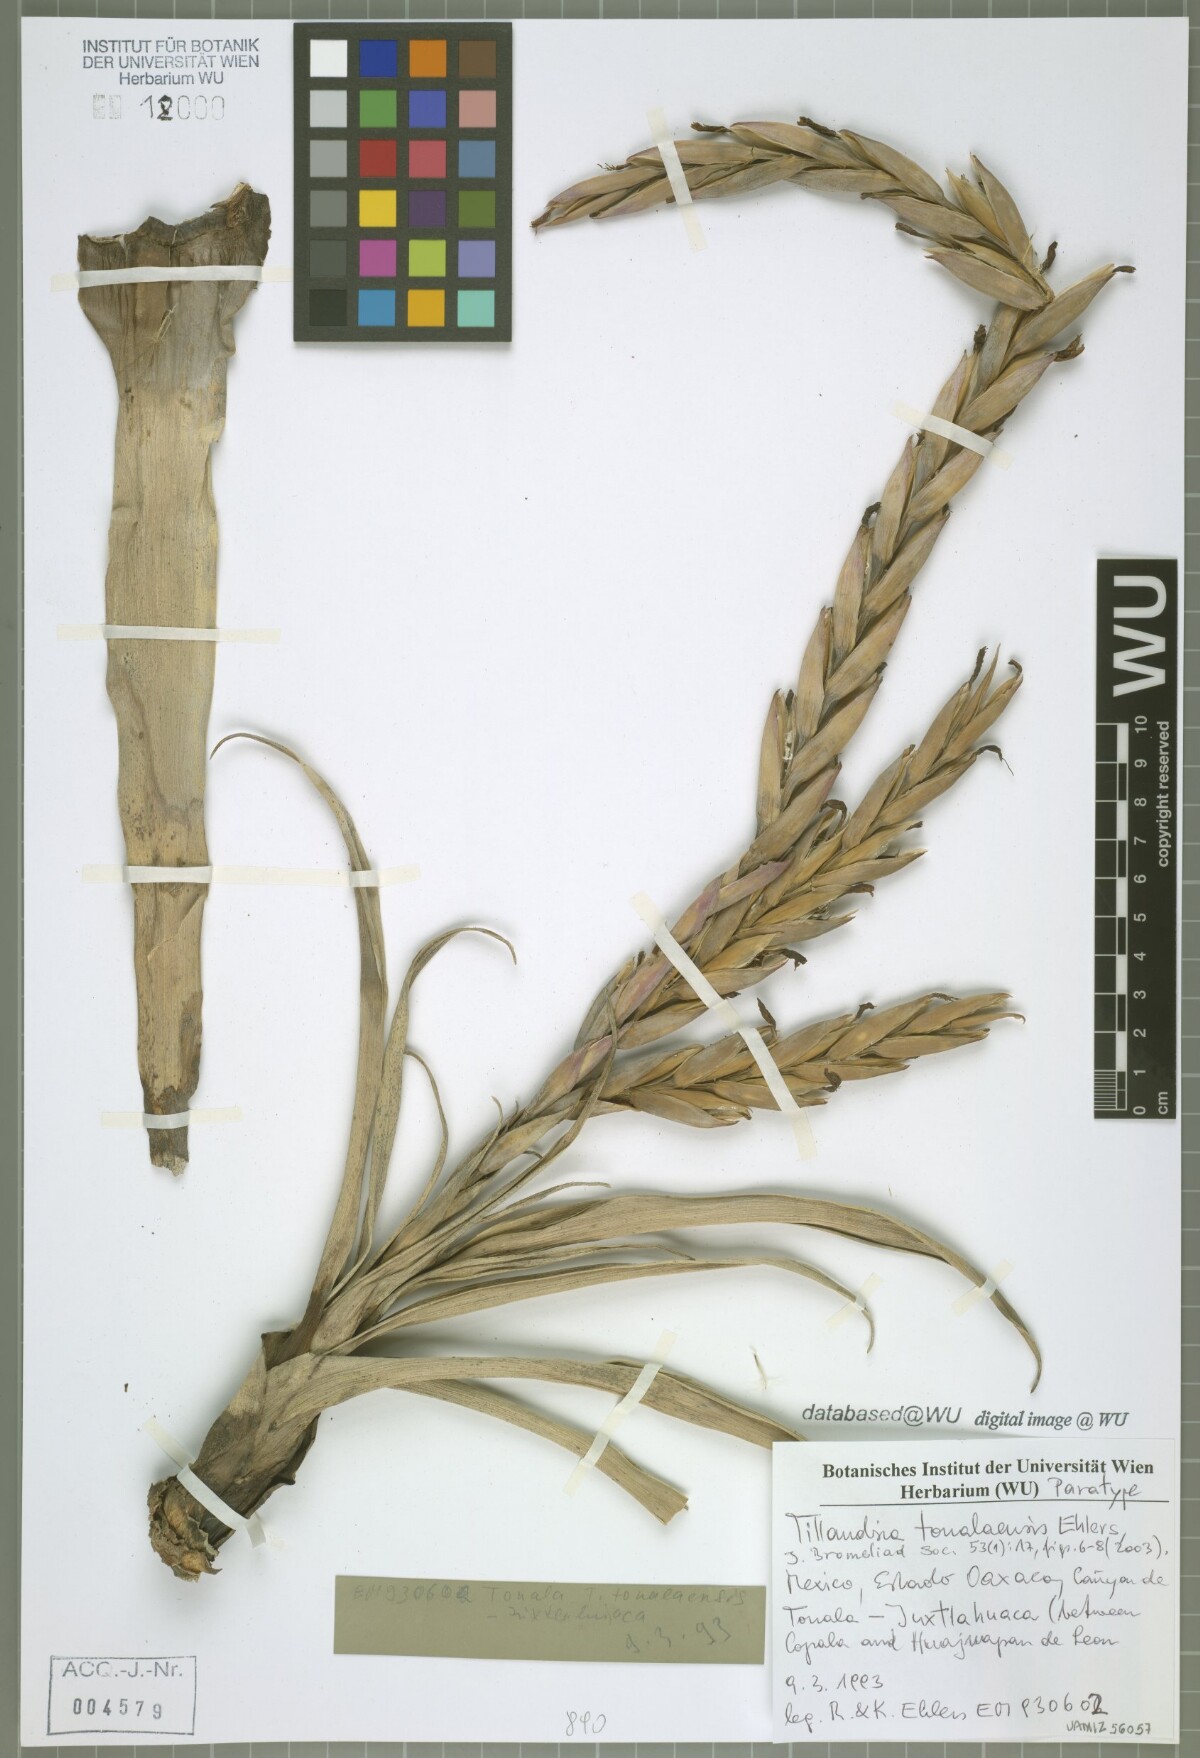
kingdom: Plantae
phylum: Tracheophyta
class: Liliopsida
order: Poales
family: Bromeliaceae
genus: Tillandsia
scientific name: Tillandsia tonalaensis
